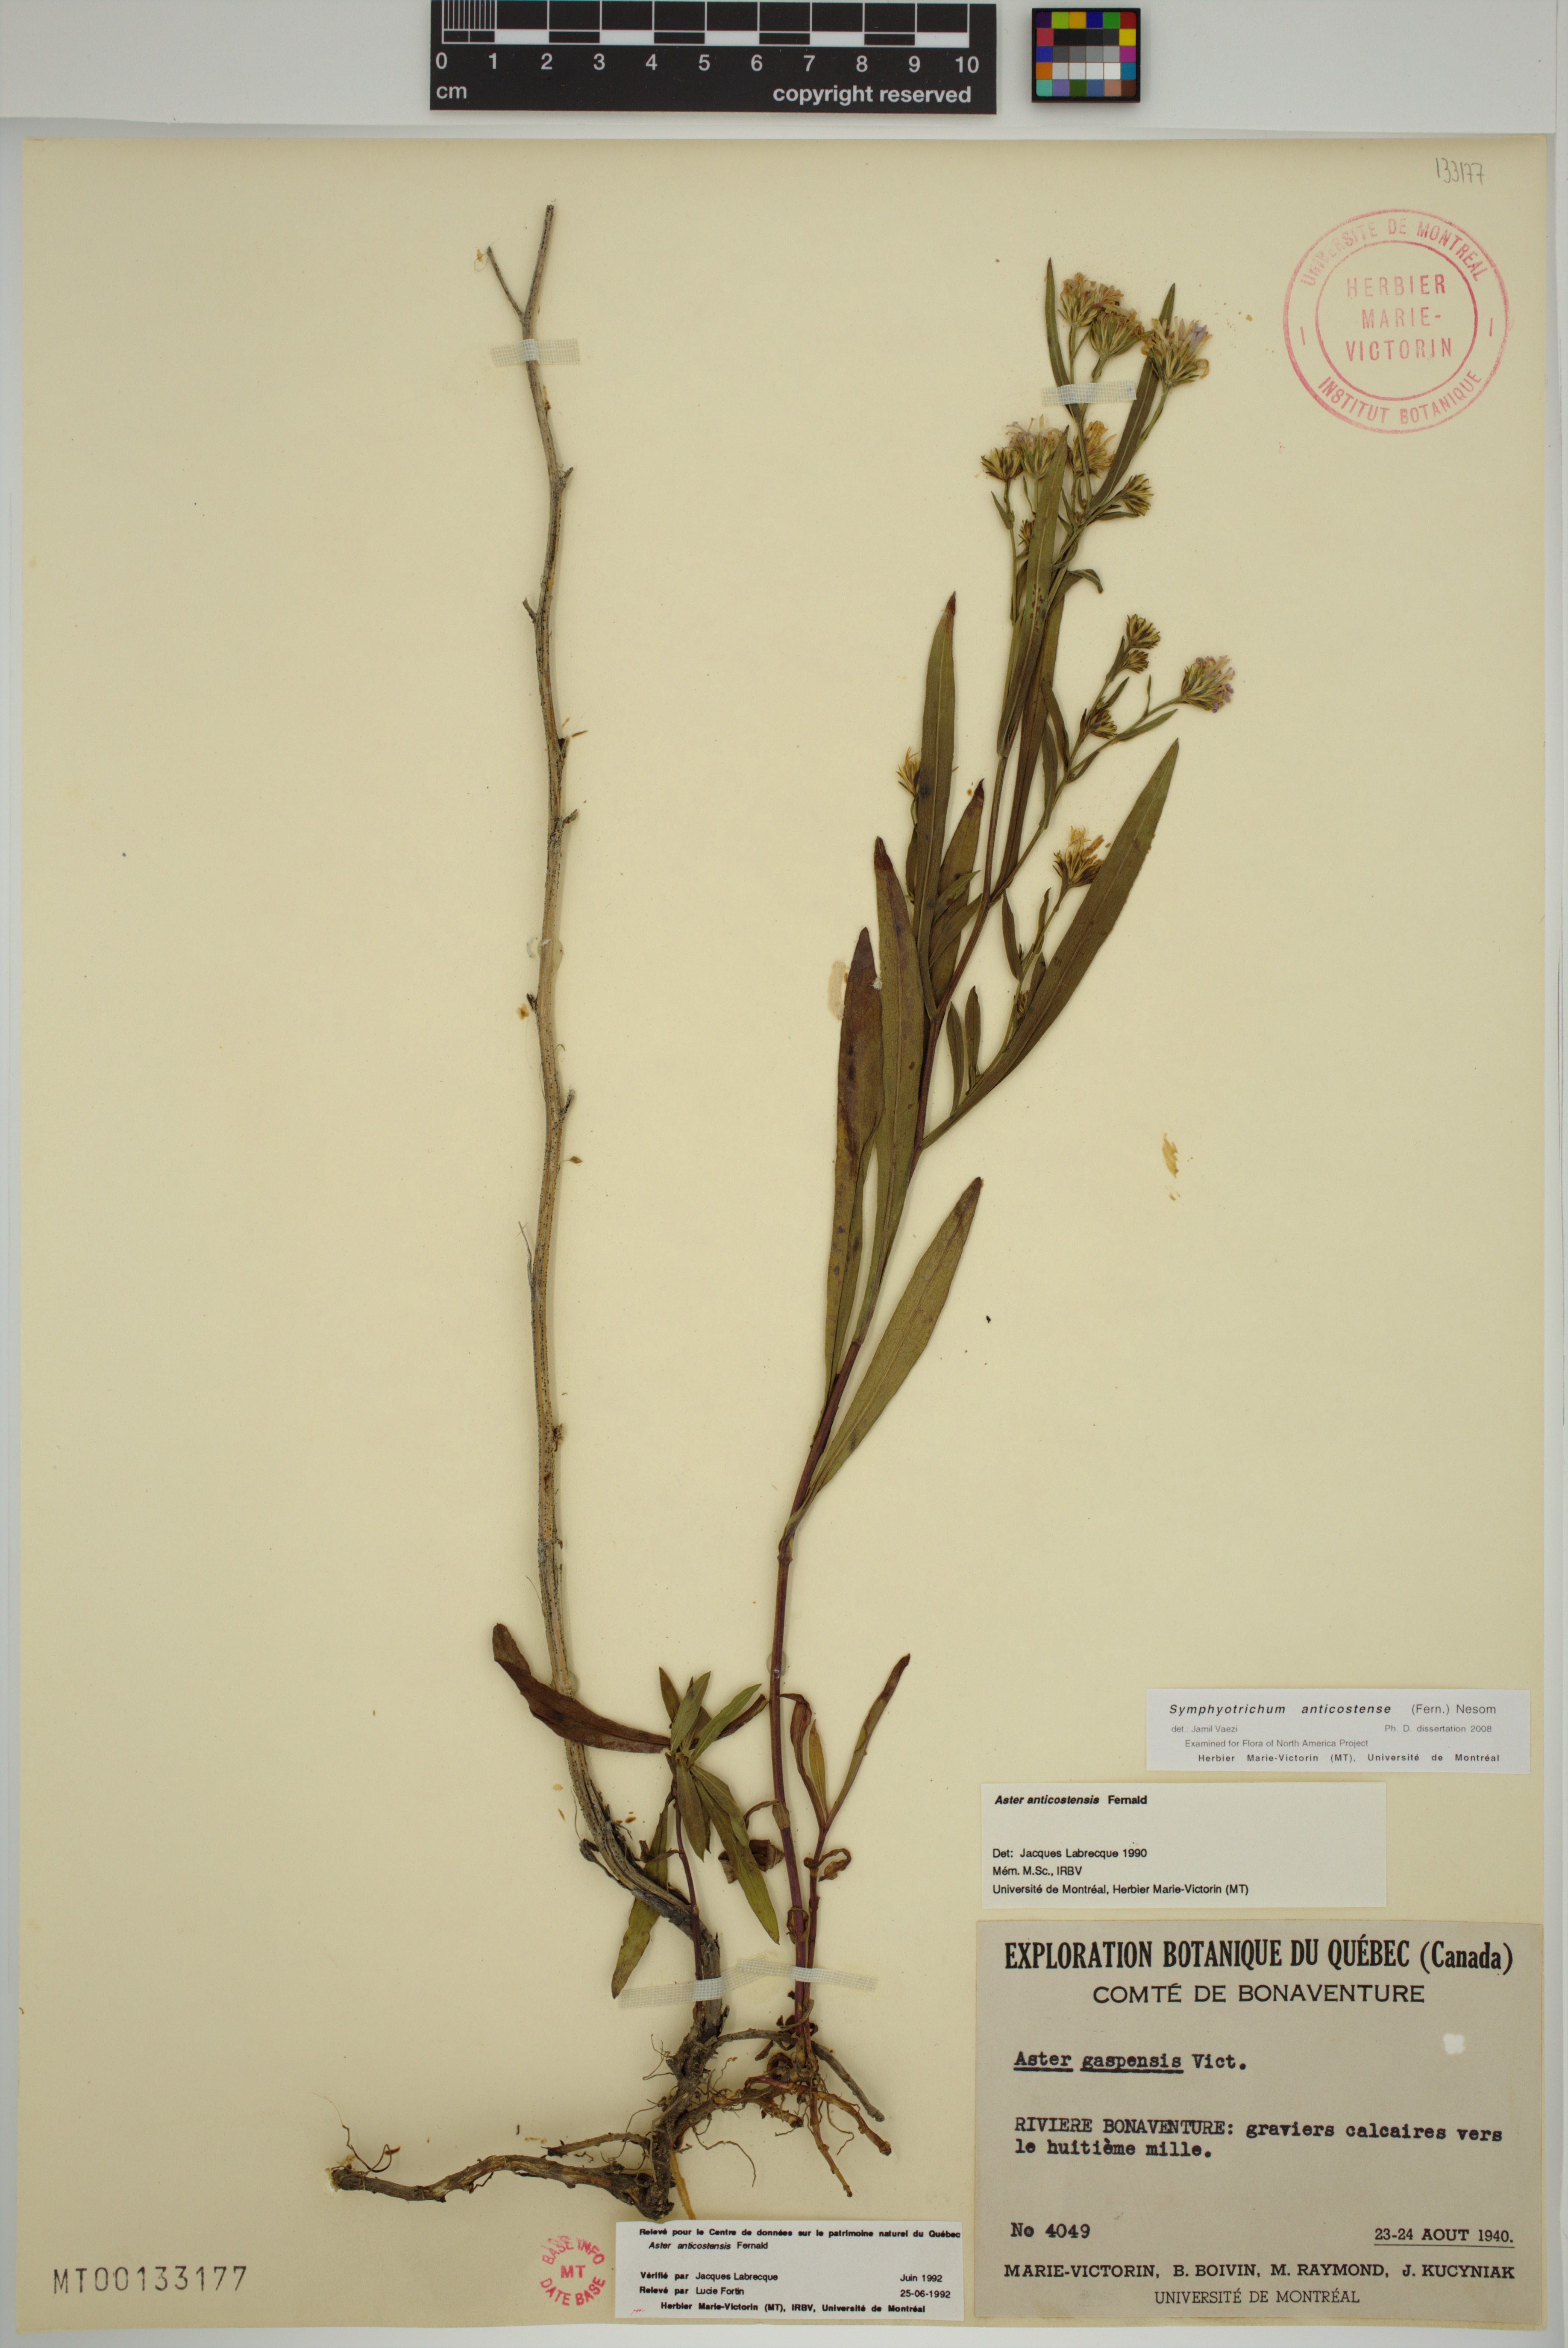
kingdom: Plantae
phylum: Tracheophyta
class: Magnoliopsida
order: Asterales
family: Asteraceae
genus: Symphyotrichum
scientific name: Symphyotrichum anticostense
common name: Anticosti island aster
